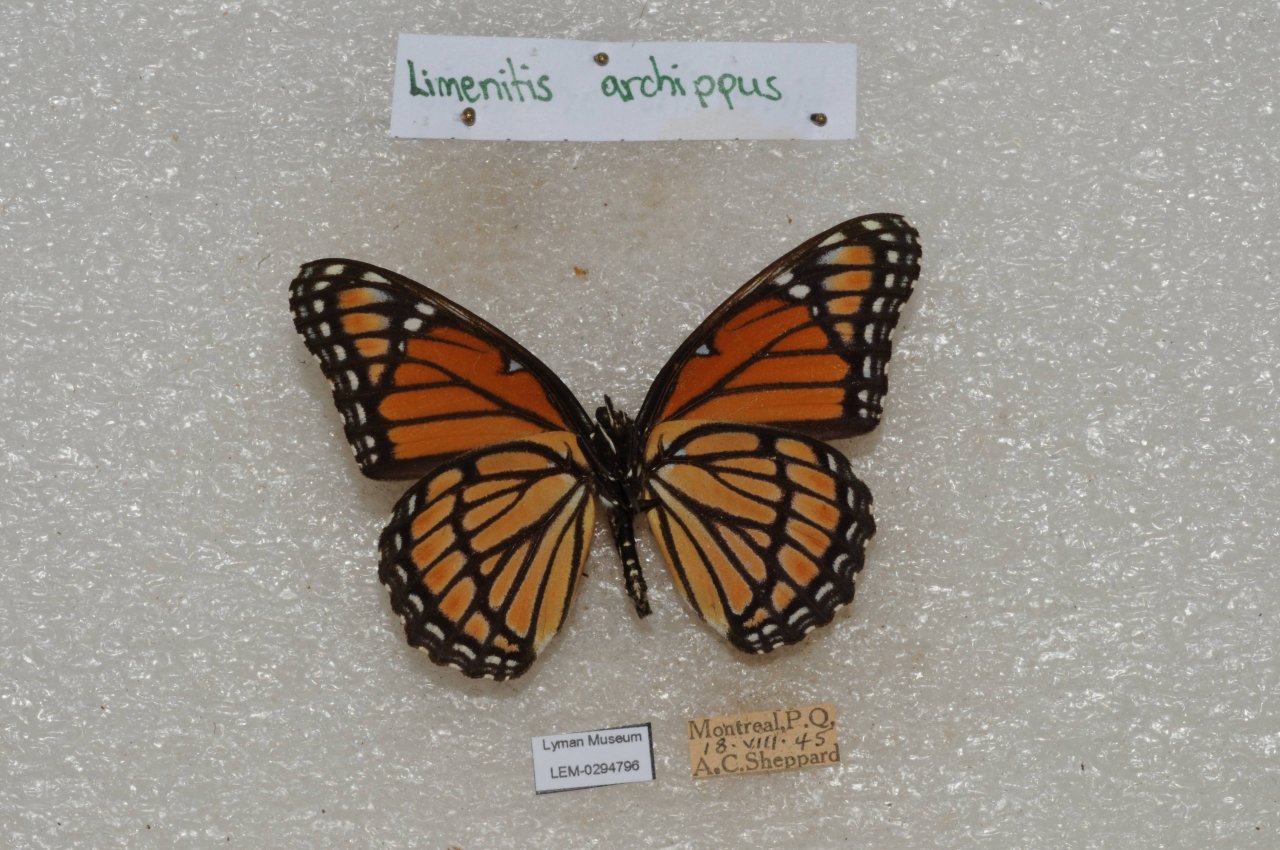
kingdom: Animalia
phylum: Arthropoda
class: Insecta
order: Lepidoptera
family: Nymphalidae
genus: Limenitis
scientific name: Limenitis archippus
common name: Viceroy
